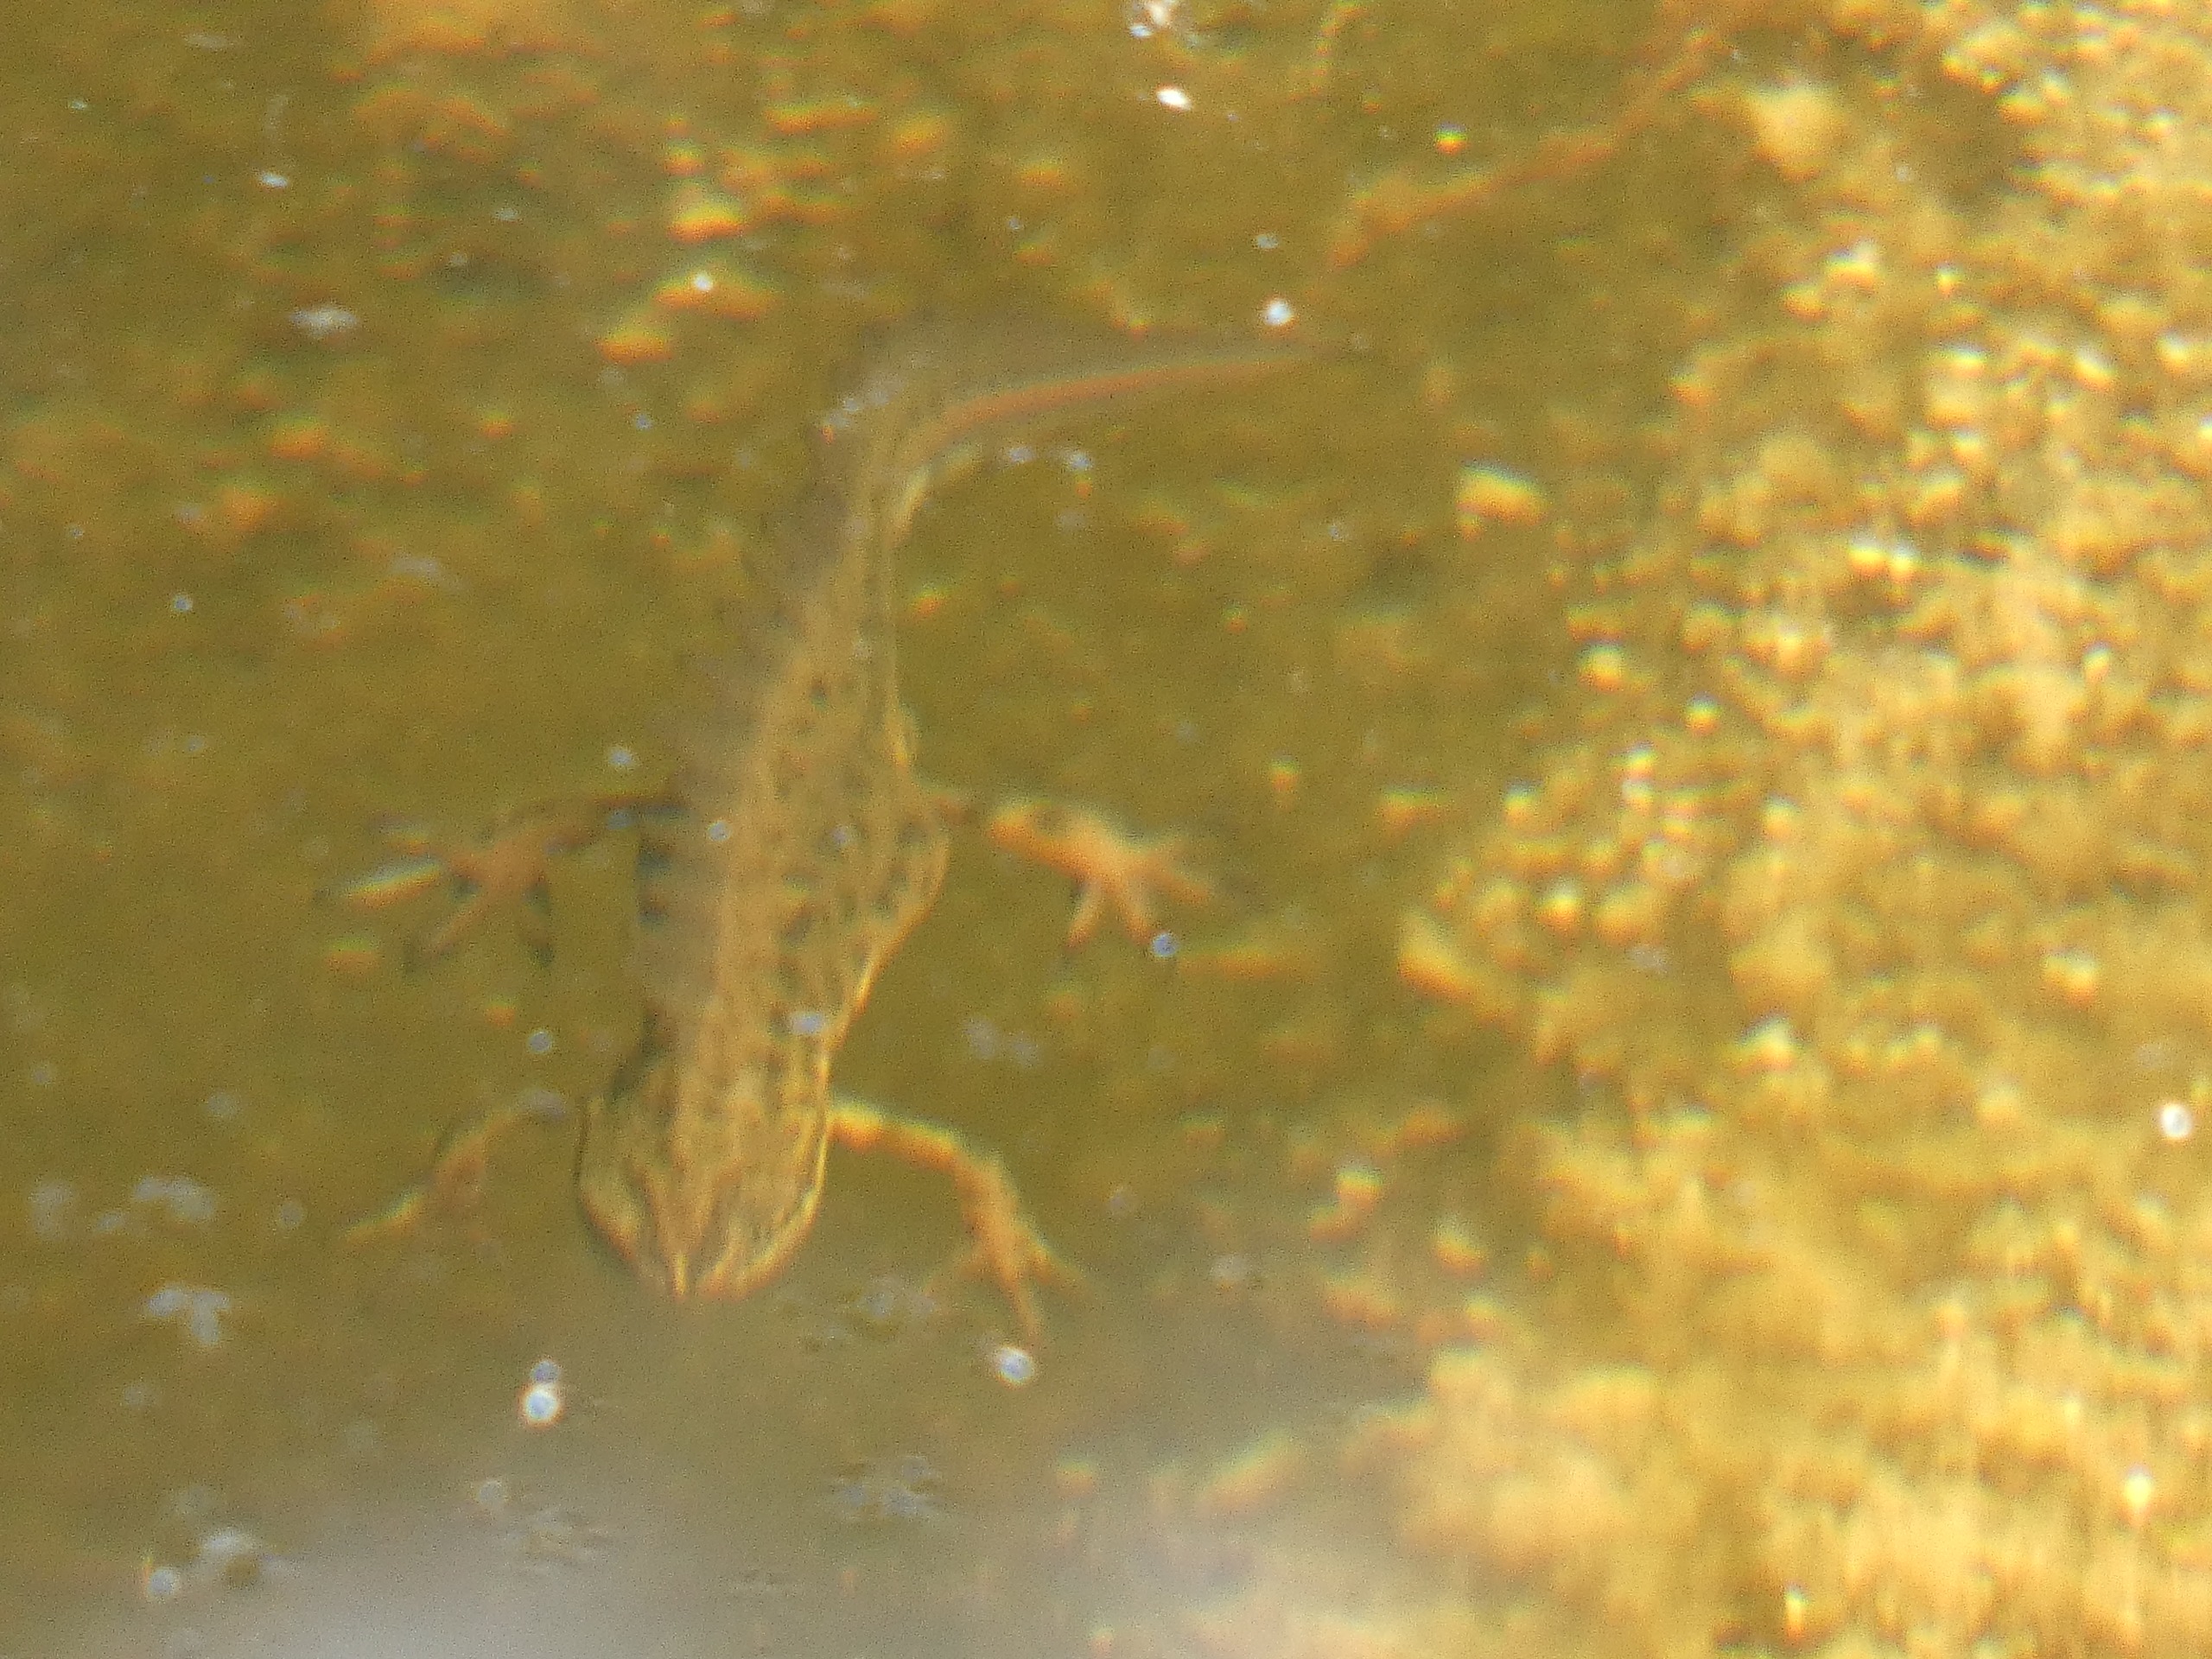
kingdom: Animalia
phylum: Chordata
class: Amphibia
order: Caudata
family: Salamandridae
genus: Lissotriton
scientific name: Lissotriton vulgaris
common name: Lille vandsalamander
